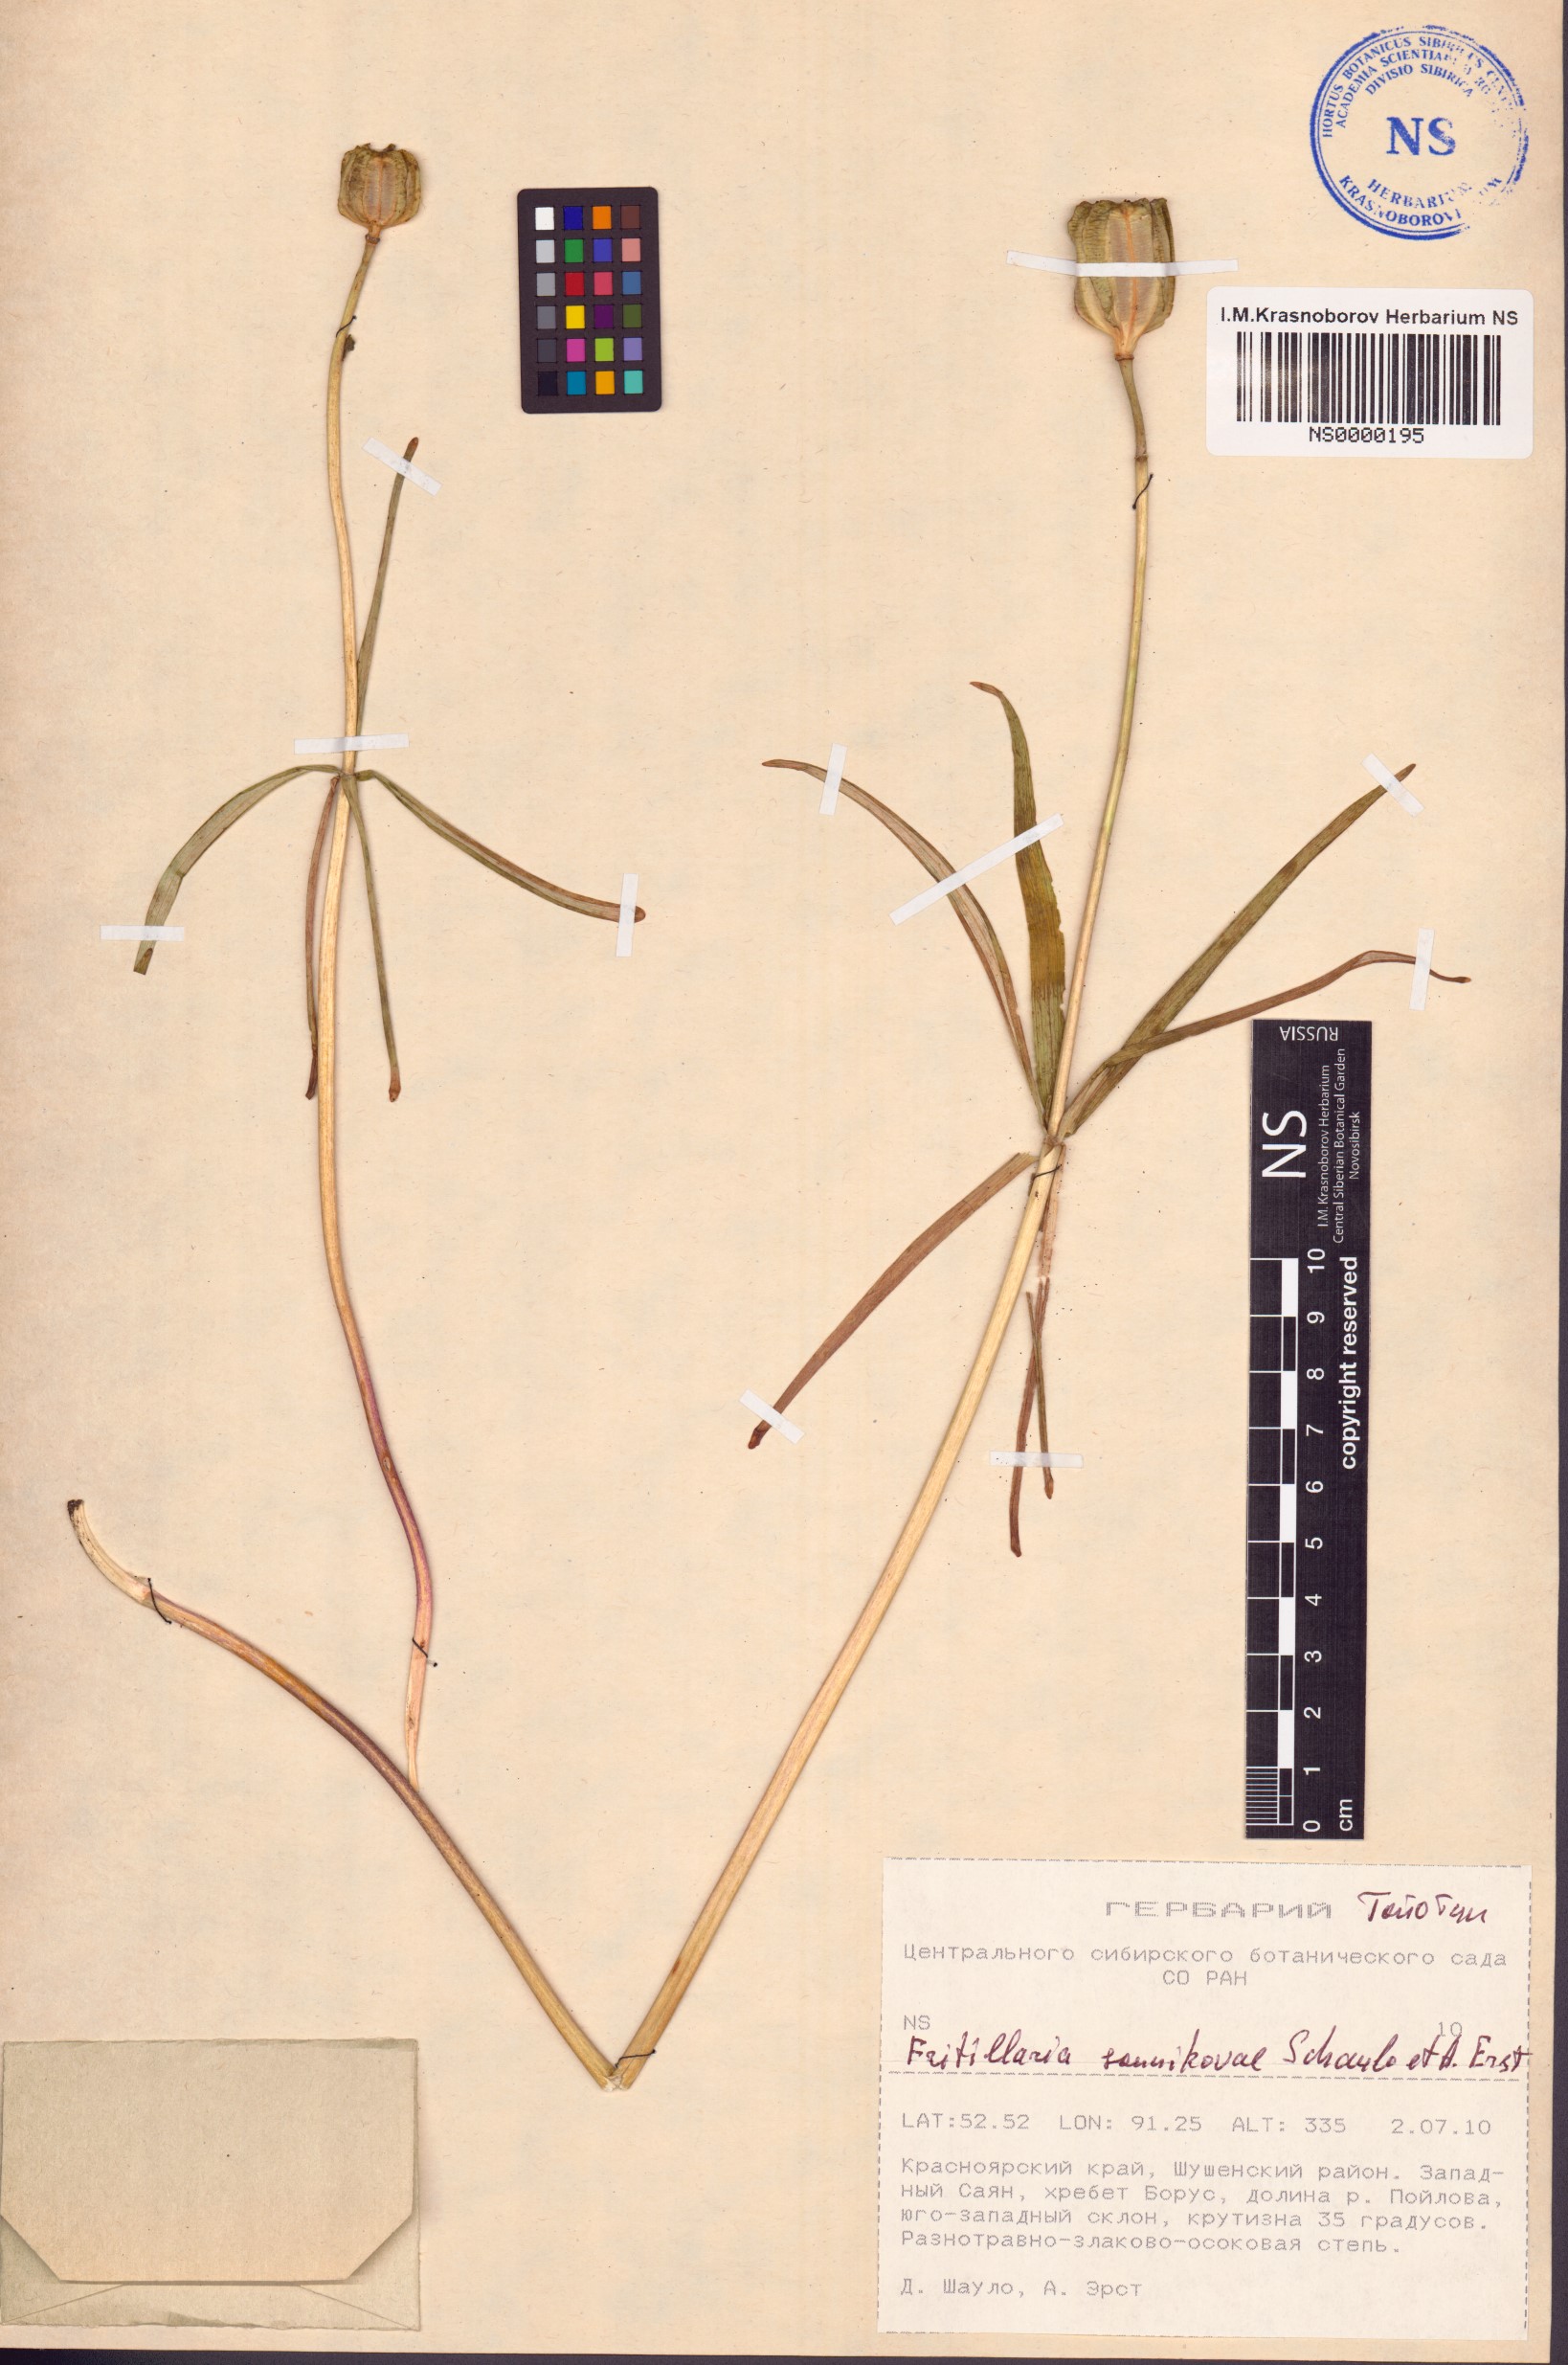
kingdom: Plantae
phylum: Tracheophyta
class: Liliopsida
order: Liliales
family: Liliaceae
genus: Fritillaria
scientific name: Fritillaria sonnikovae
